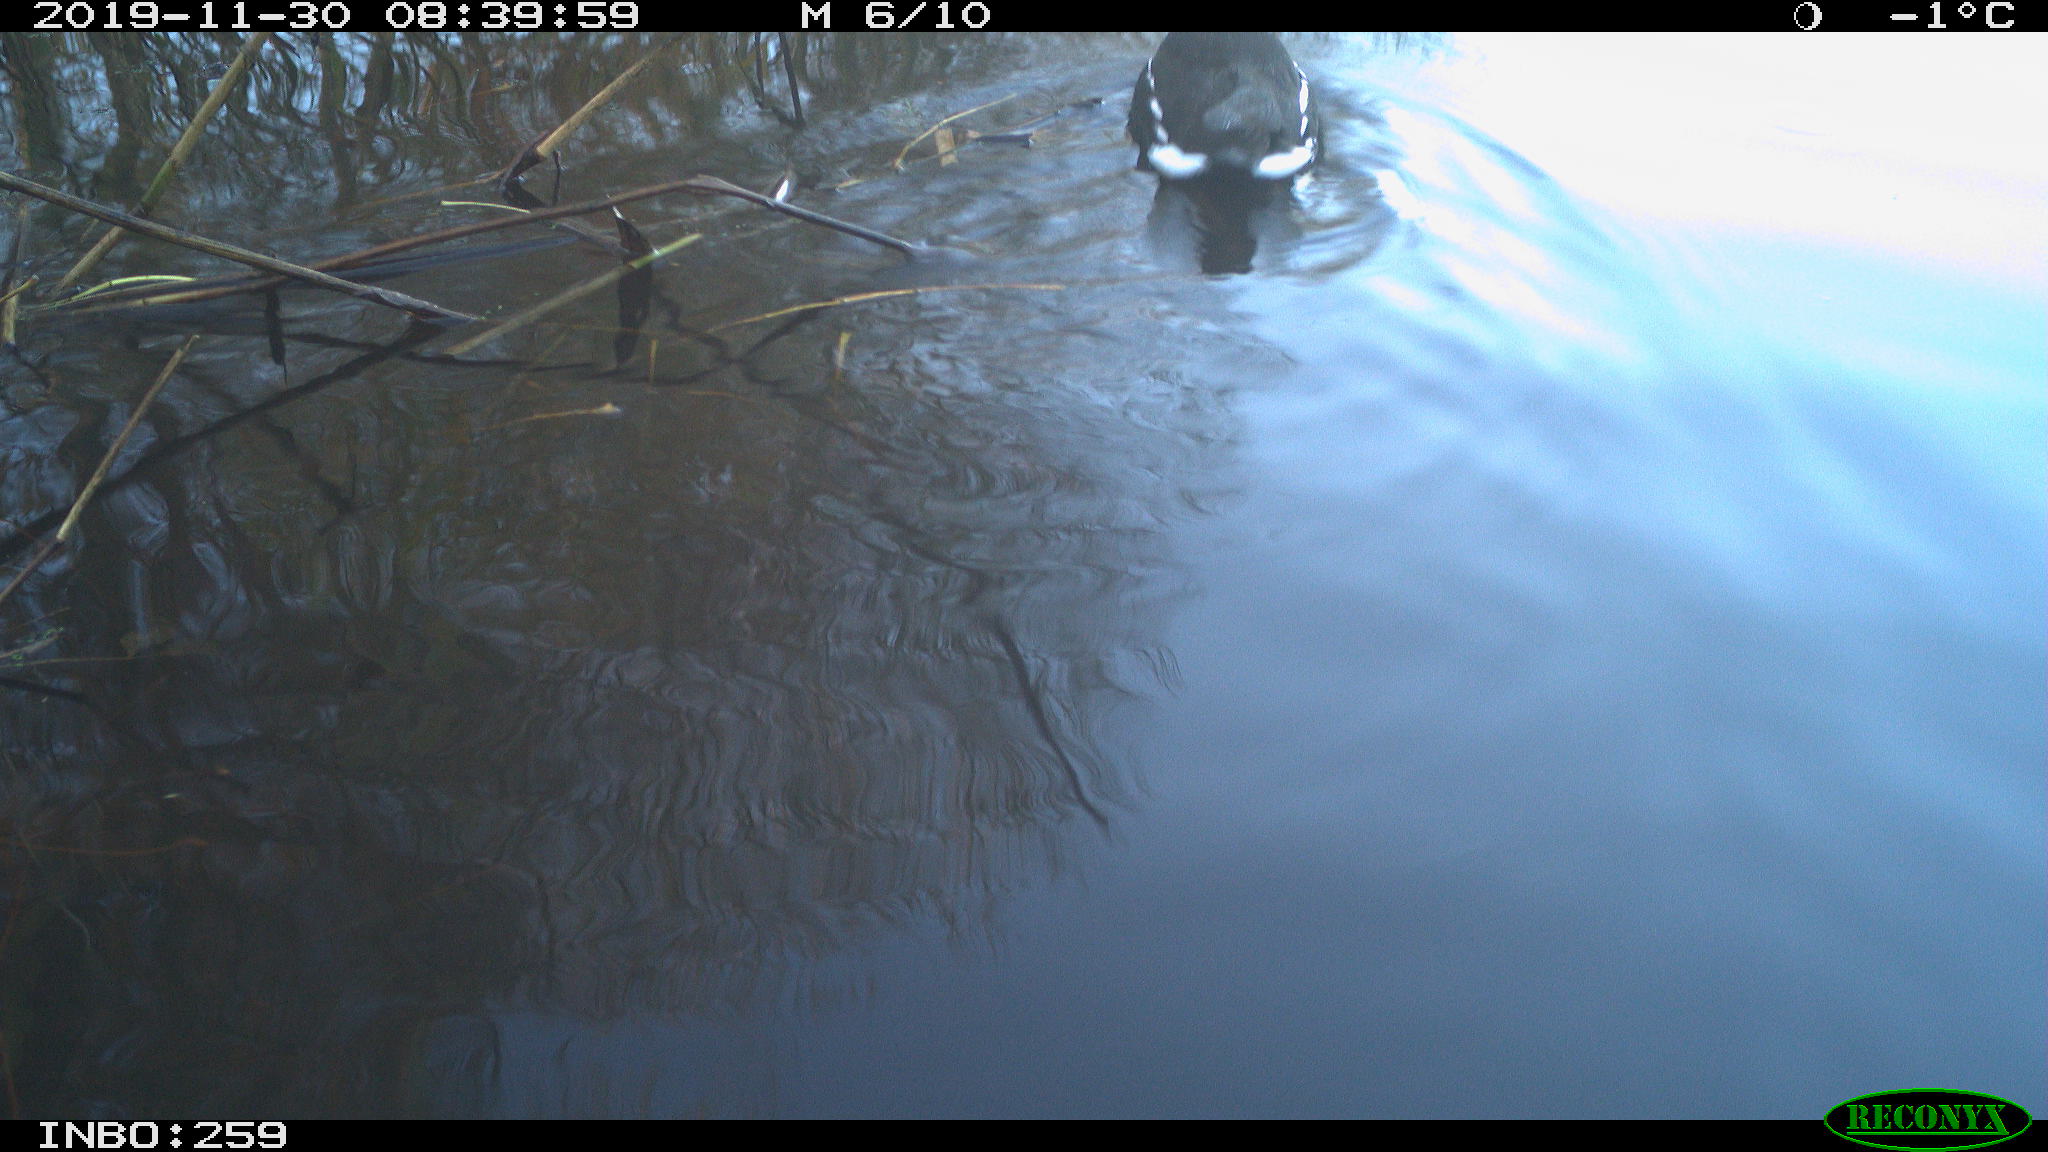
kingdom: Animalia
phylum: Chordata
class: Aves
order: Gruiformes
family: Rallidae
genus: Gallinula
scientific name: Gallinula chloropus
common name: Common moorhen
